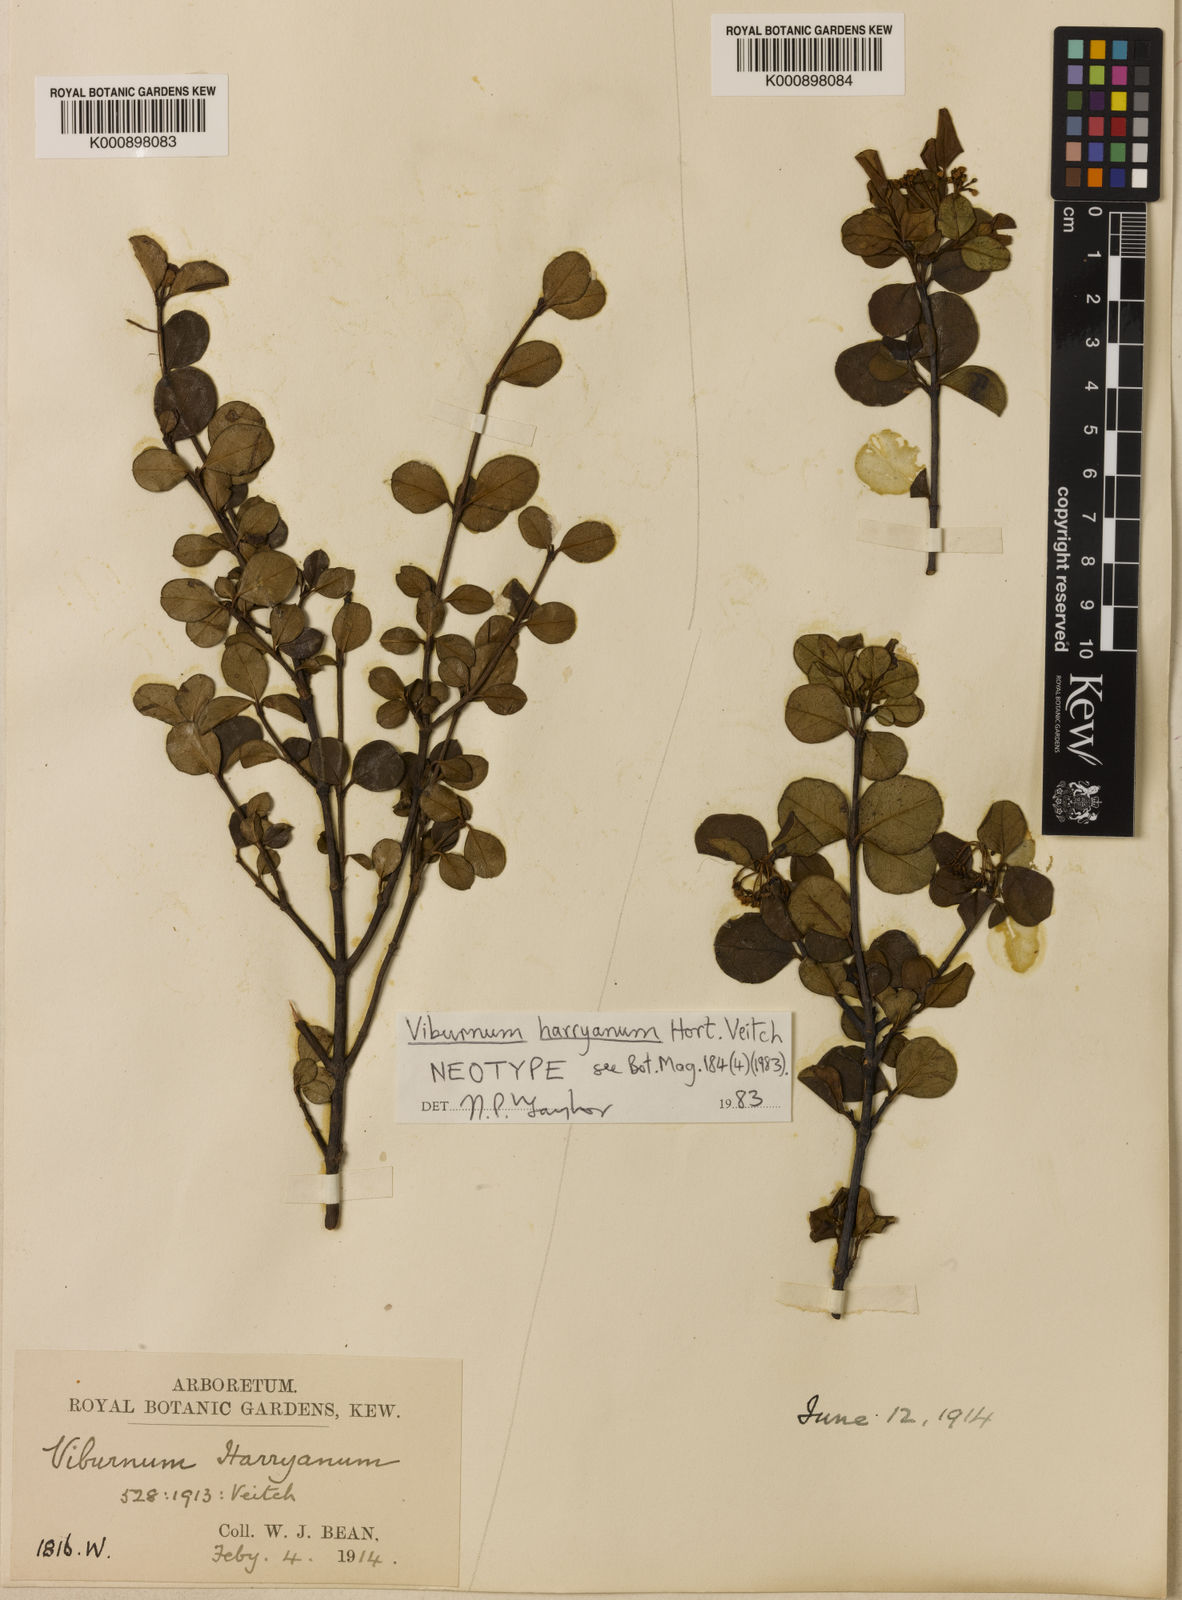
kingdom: Plantae
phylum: Tracheophyta
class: Magnoliopsida
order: Dipsacales
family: Viburnaceae
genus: Viburnum
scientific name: Viburnum atrocyaneum
